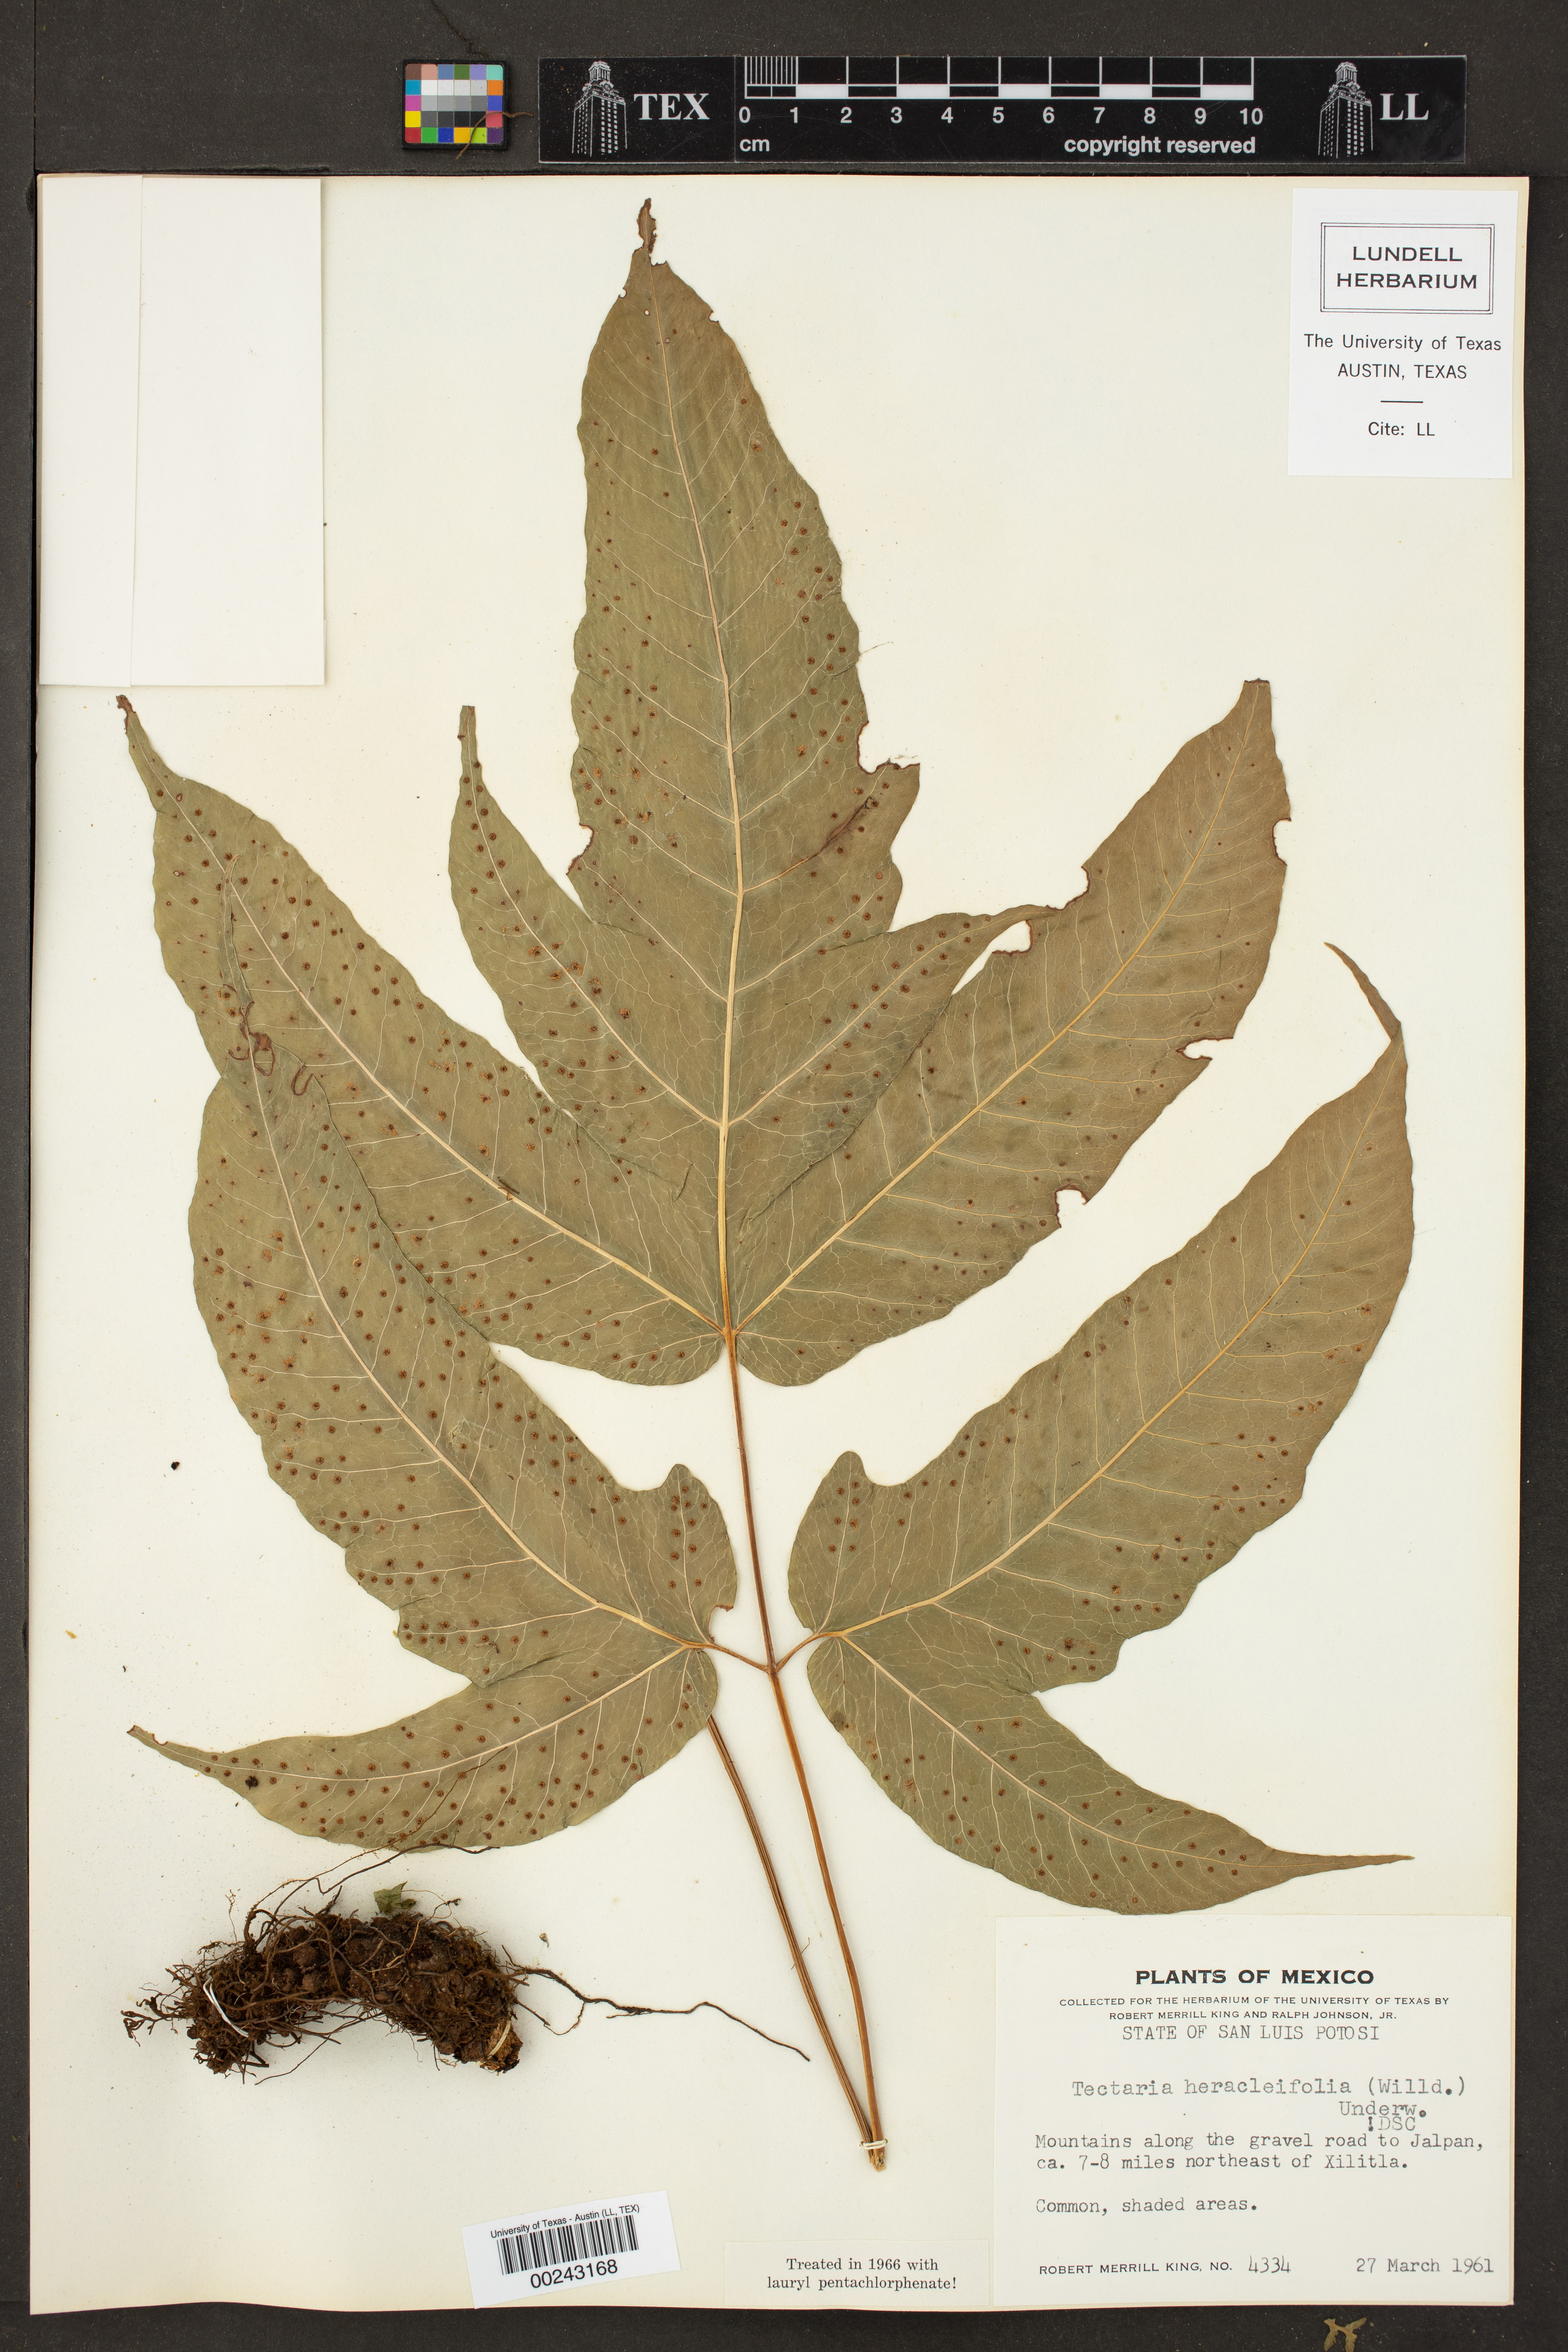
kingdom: Plantae
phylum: Tracheophyta
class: Polypodiopsida
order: Polypodiales
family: Tectariaceae
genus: Tectaria
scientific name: Tectaria heracleifolia
